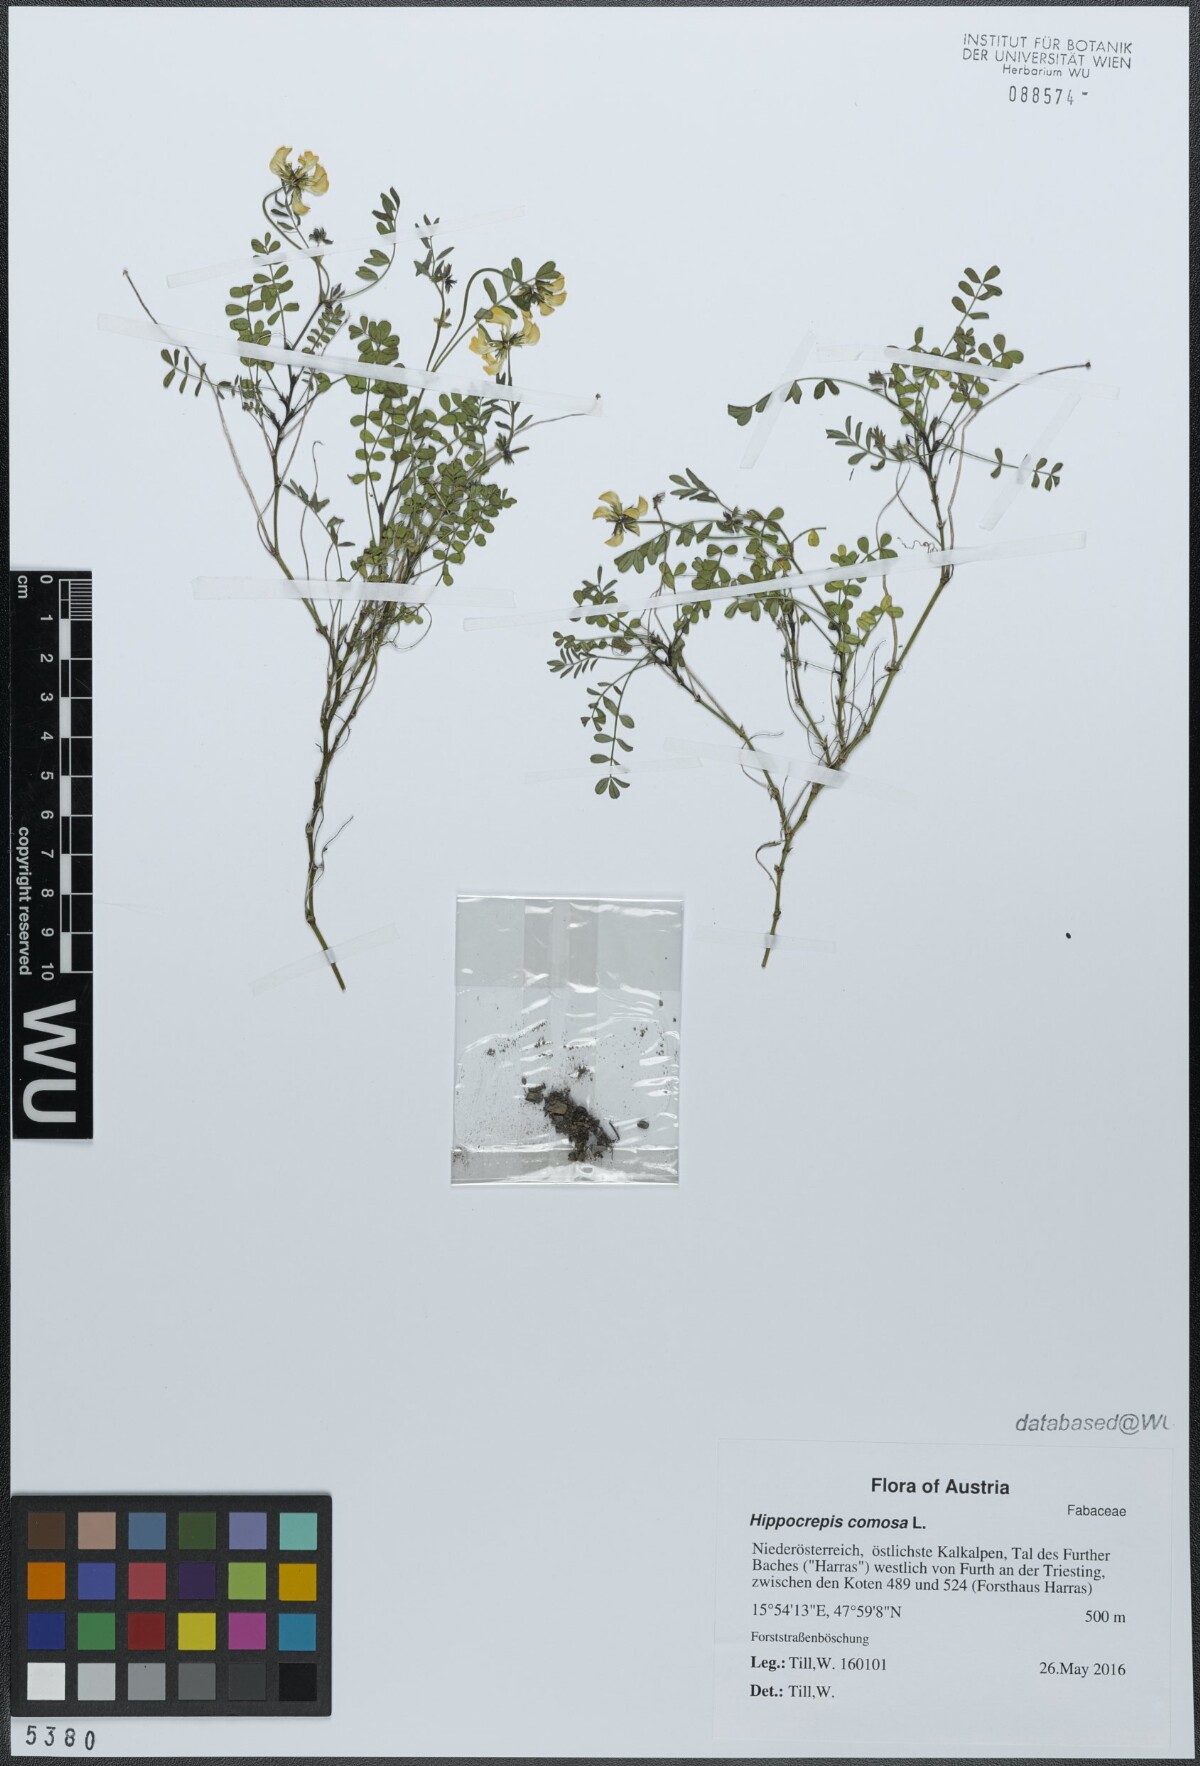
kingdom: Plantae
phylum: Tracheophyta
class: Magnoliopsida
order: Fabales
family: Fabaceae
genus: Hippocrepis
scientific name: Hippocrepis comosa
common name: Horseshoe vetch
